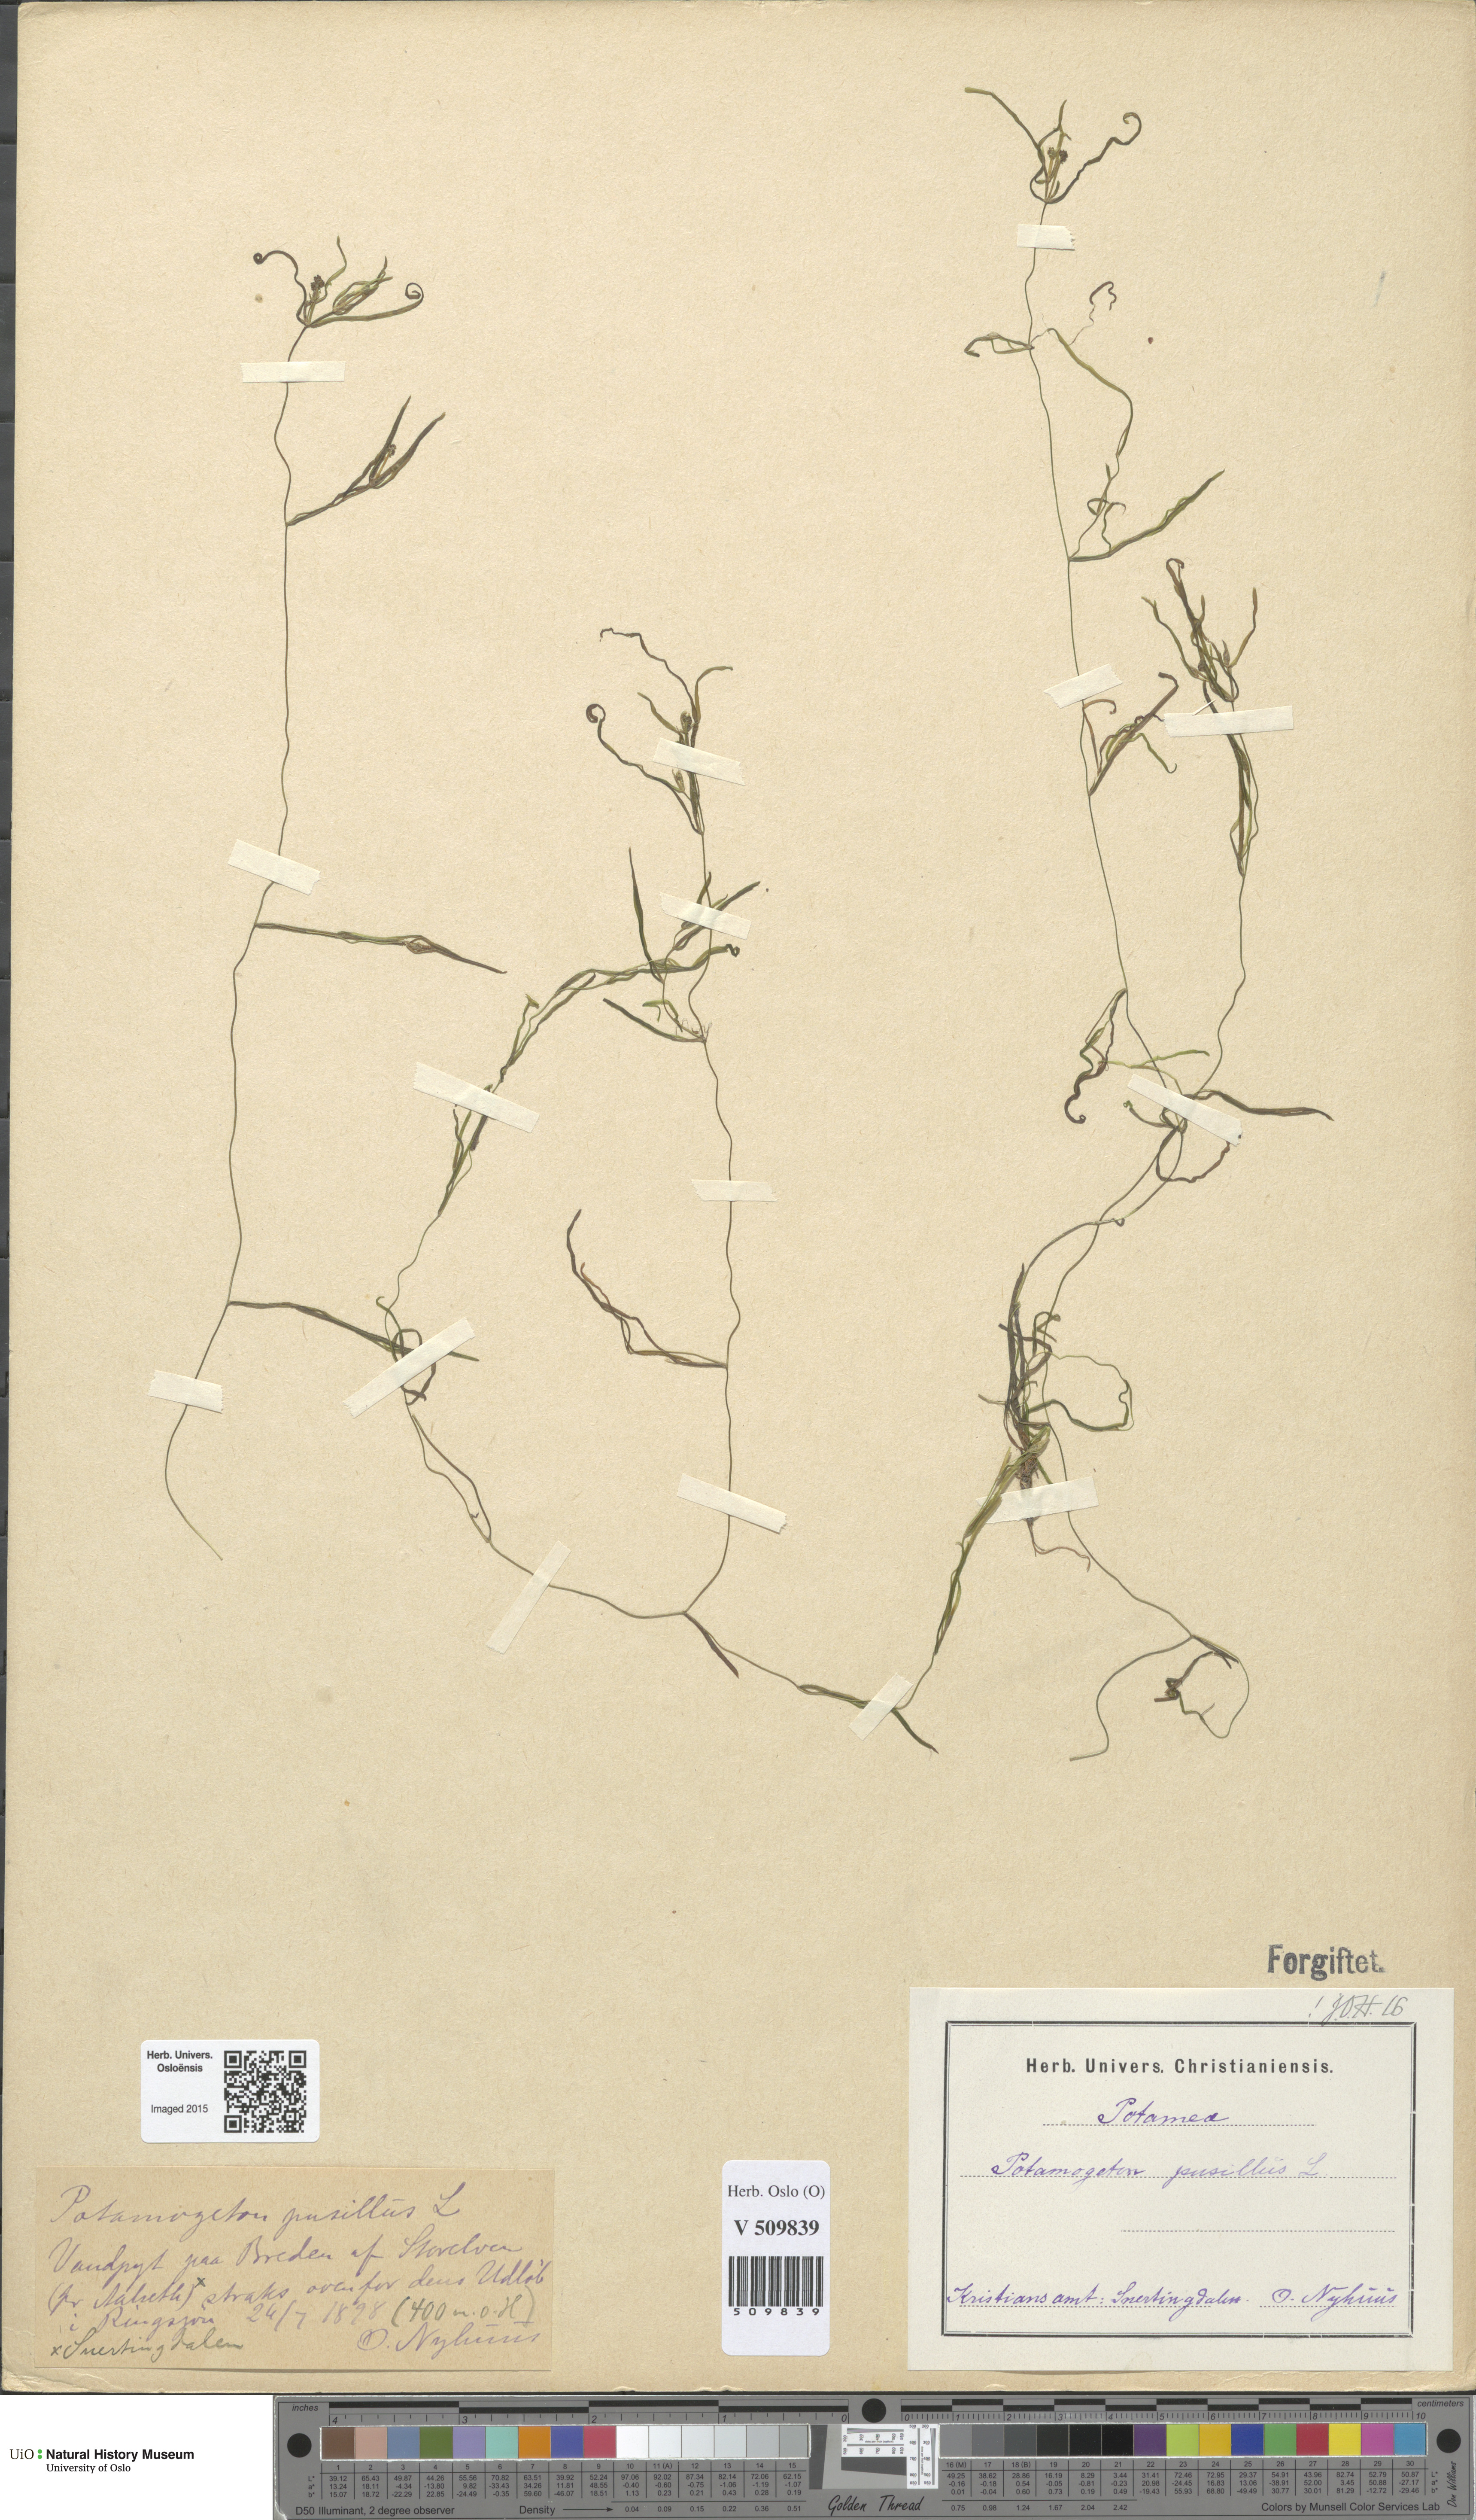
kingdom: Plantae
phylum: Tracheophyta
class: Liliopsida
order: Alismatales
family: Potamogetonaceae
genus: Potamogeton
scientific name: Potamogeton berchtoldii
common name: Small pondweed
